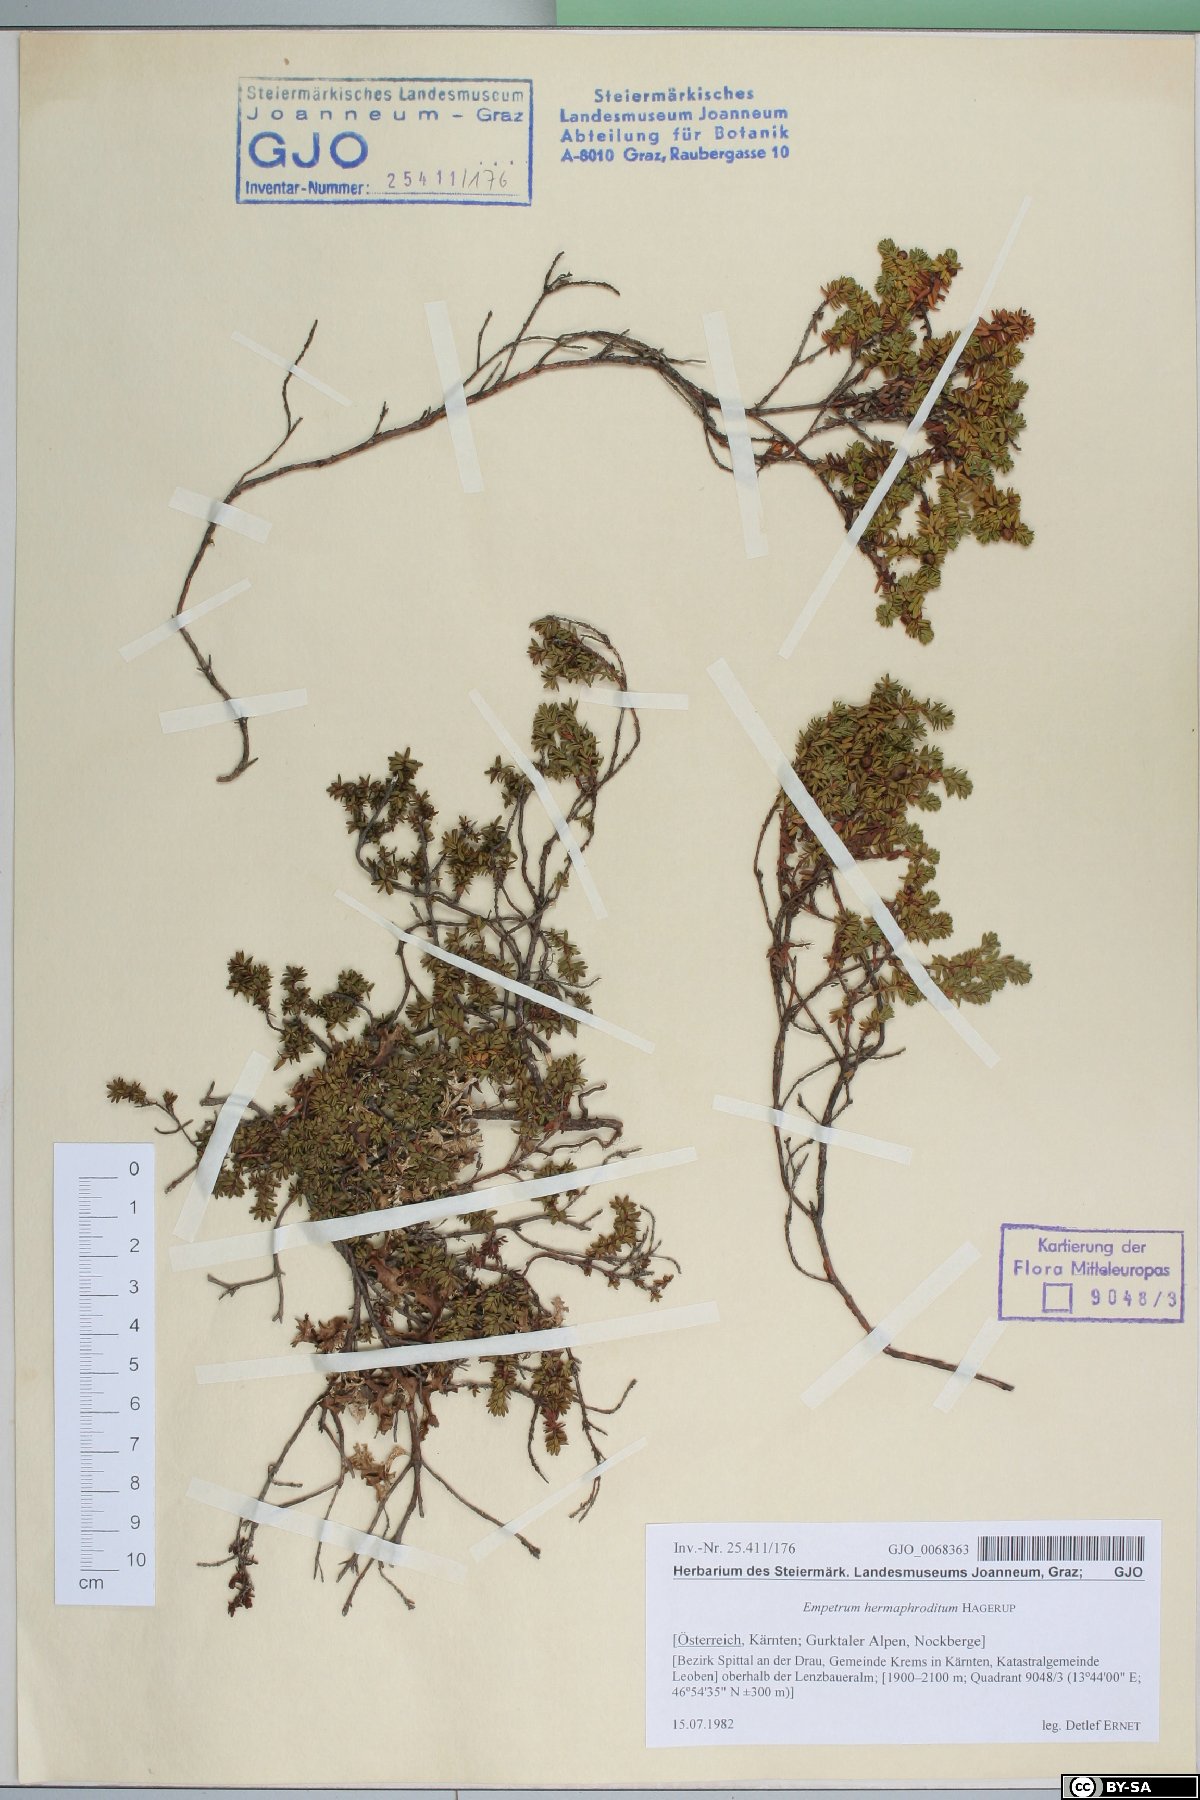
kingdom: Plantae
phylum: Tracheophyta
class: Magnoliopsida
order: Ericales
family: Ericaceae
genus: Empetrum
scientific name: Empetrum hermaphroditum
